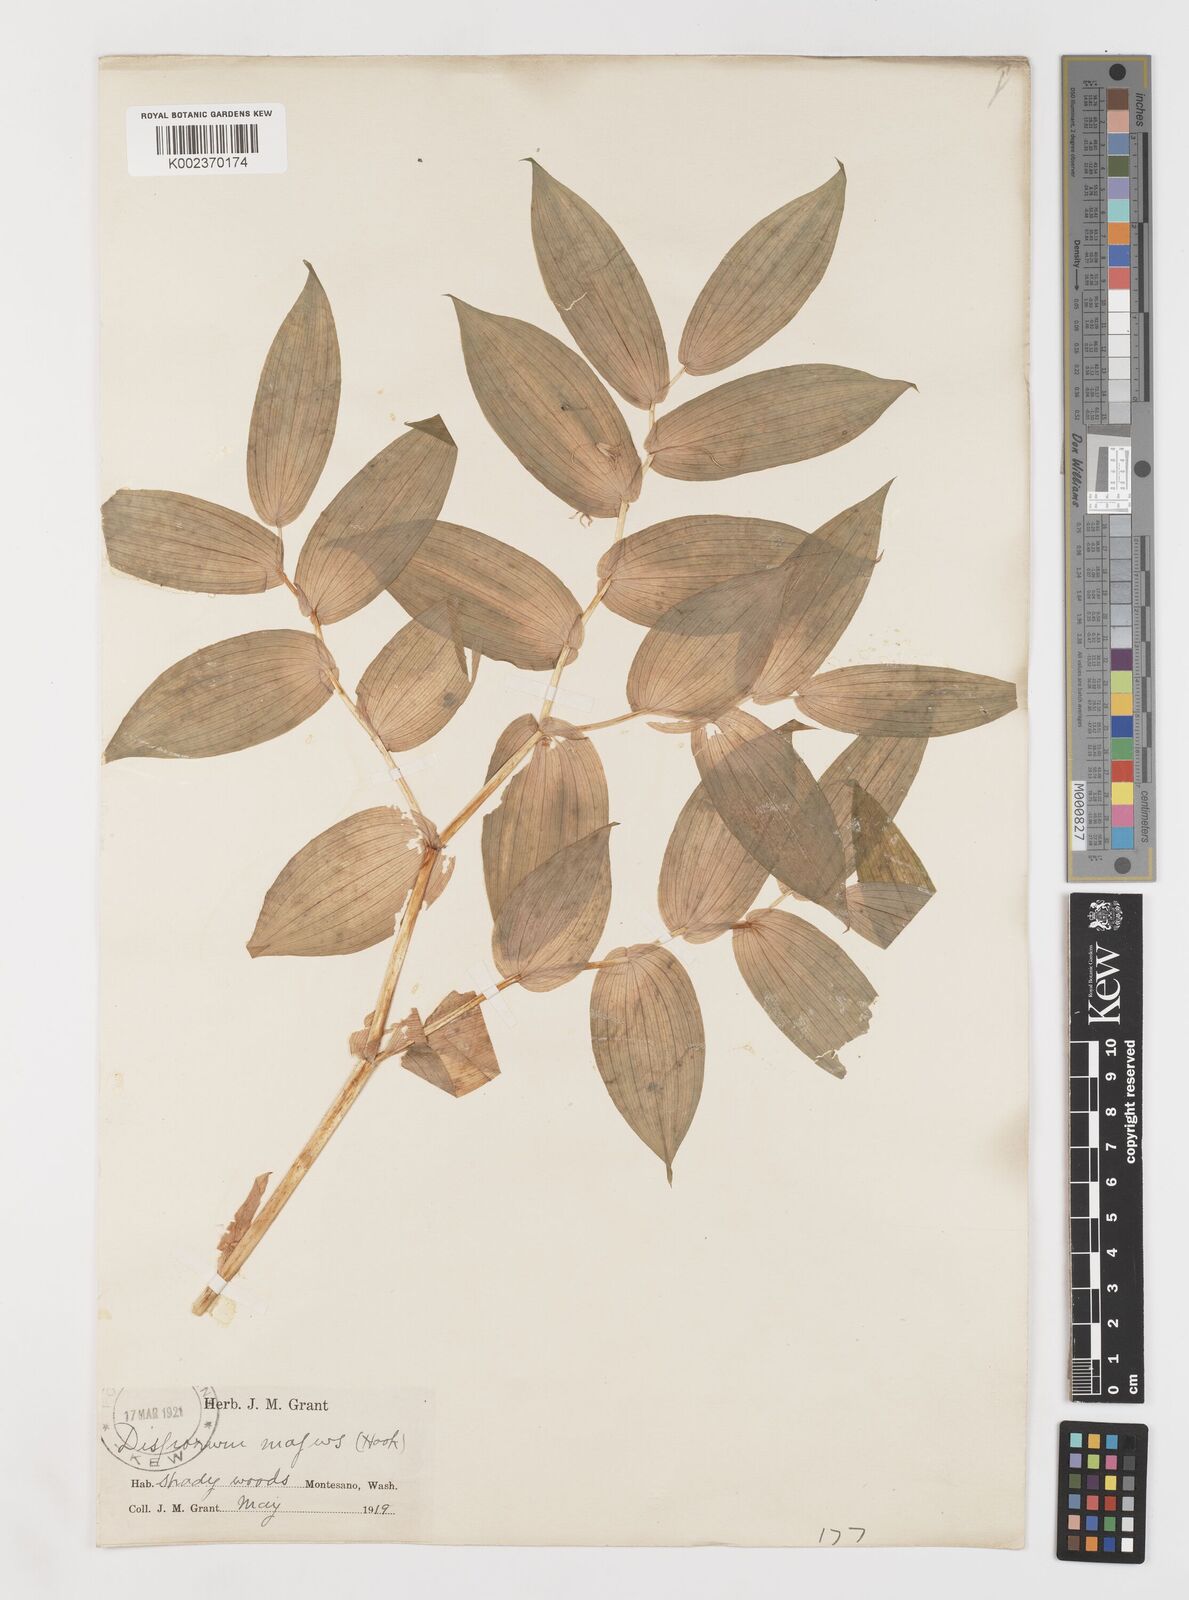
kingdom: Plantae
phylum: Tracheophyta
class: Liliopsida
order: Liliales
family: Liliaceae
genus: Prosartes
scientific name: Prosartes trachycarpa
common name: Rough-fruit fairy-bells
